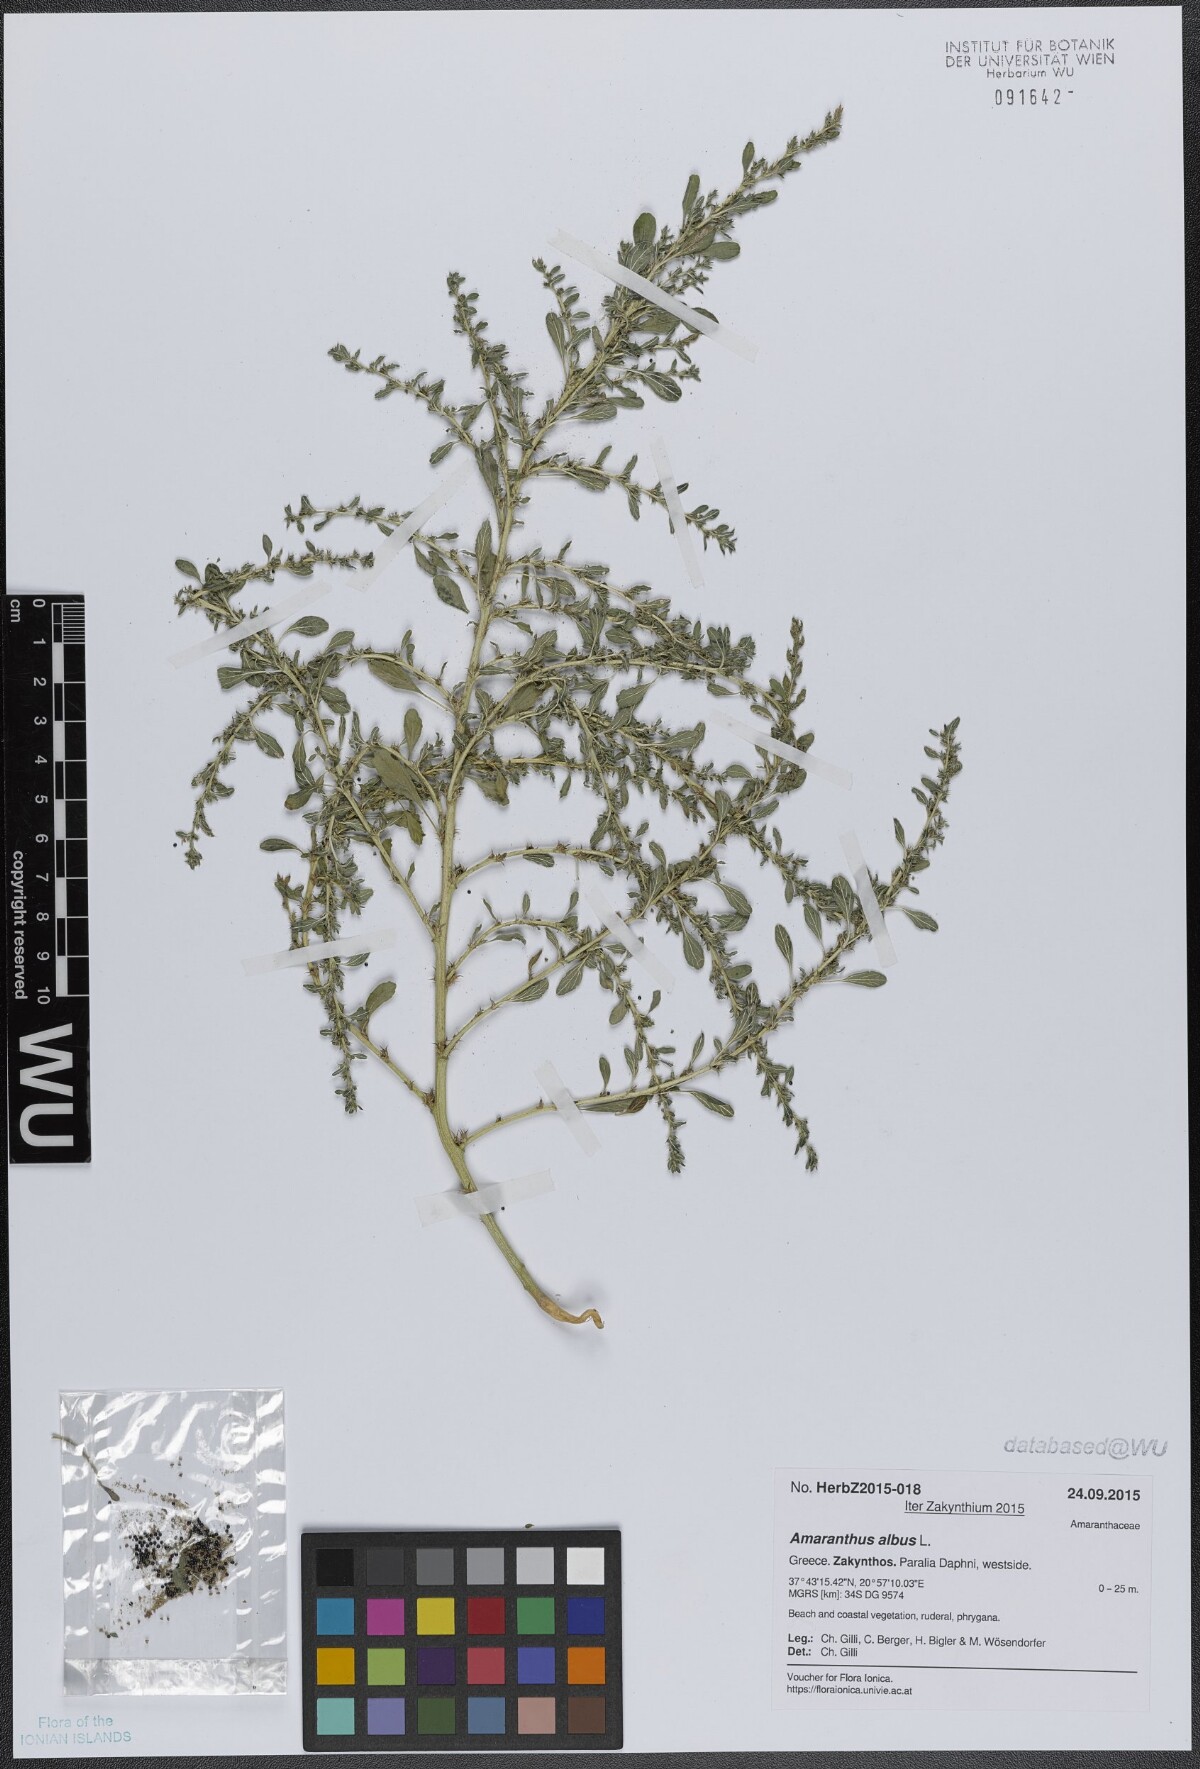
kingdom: Plantae
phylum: Tracheophyta
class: Magnoliopsida
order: Caryophyllales
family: Amaranthaceae
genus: Amaranthus
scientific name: Amaranthus albus
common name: White pigweed
